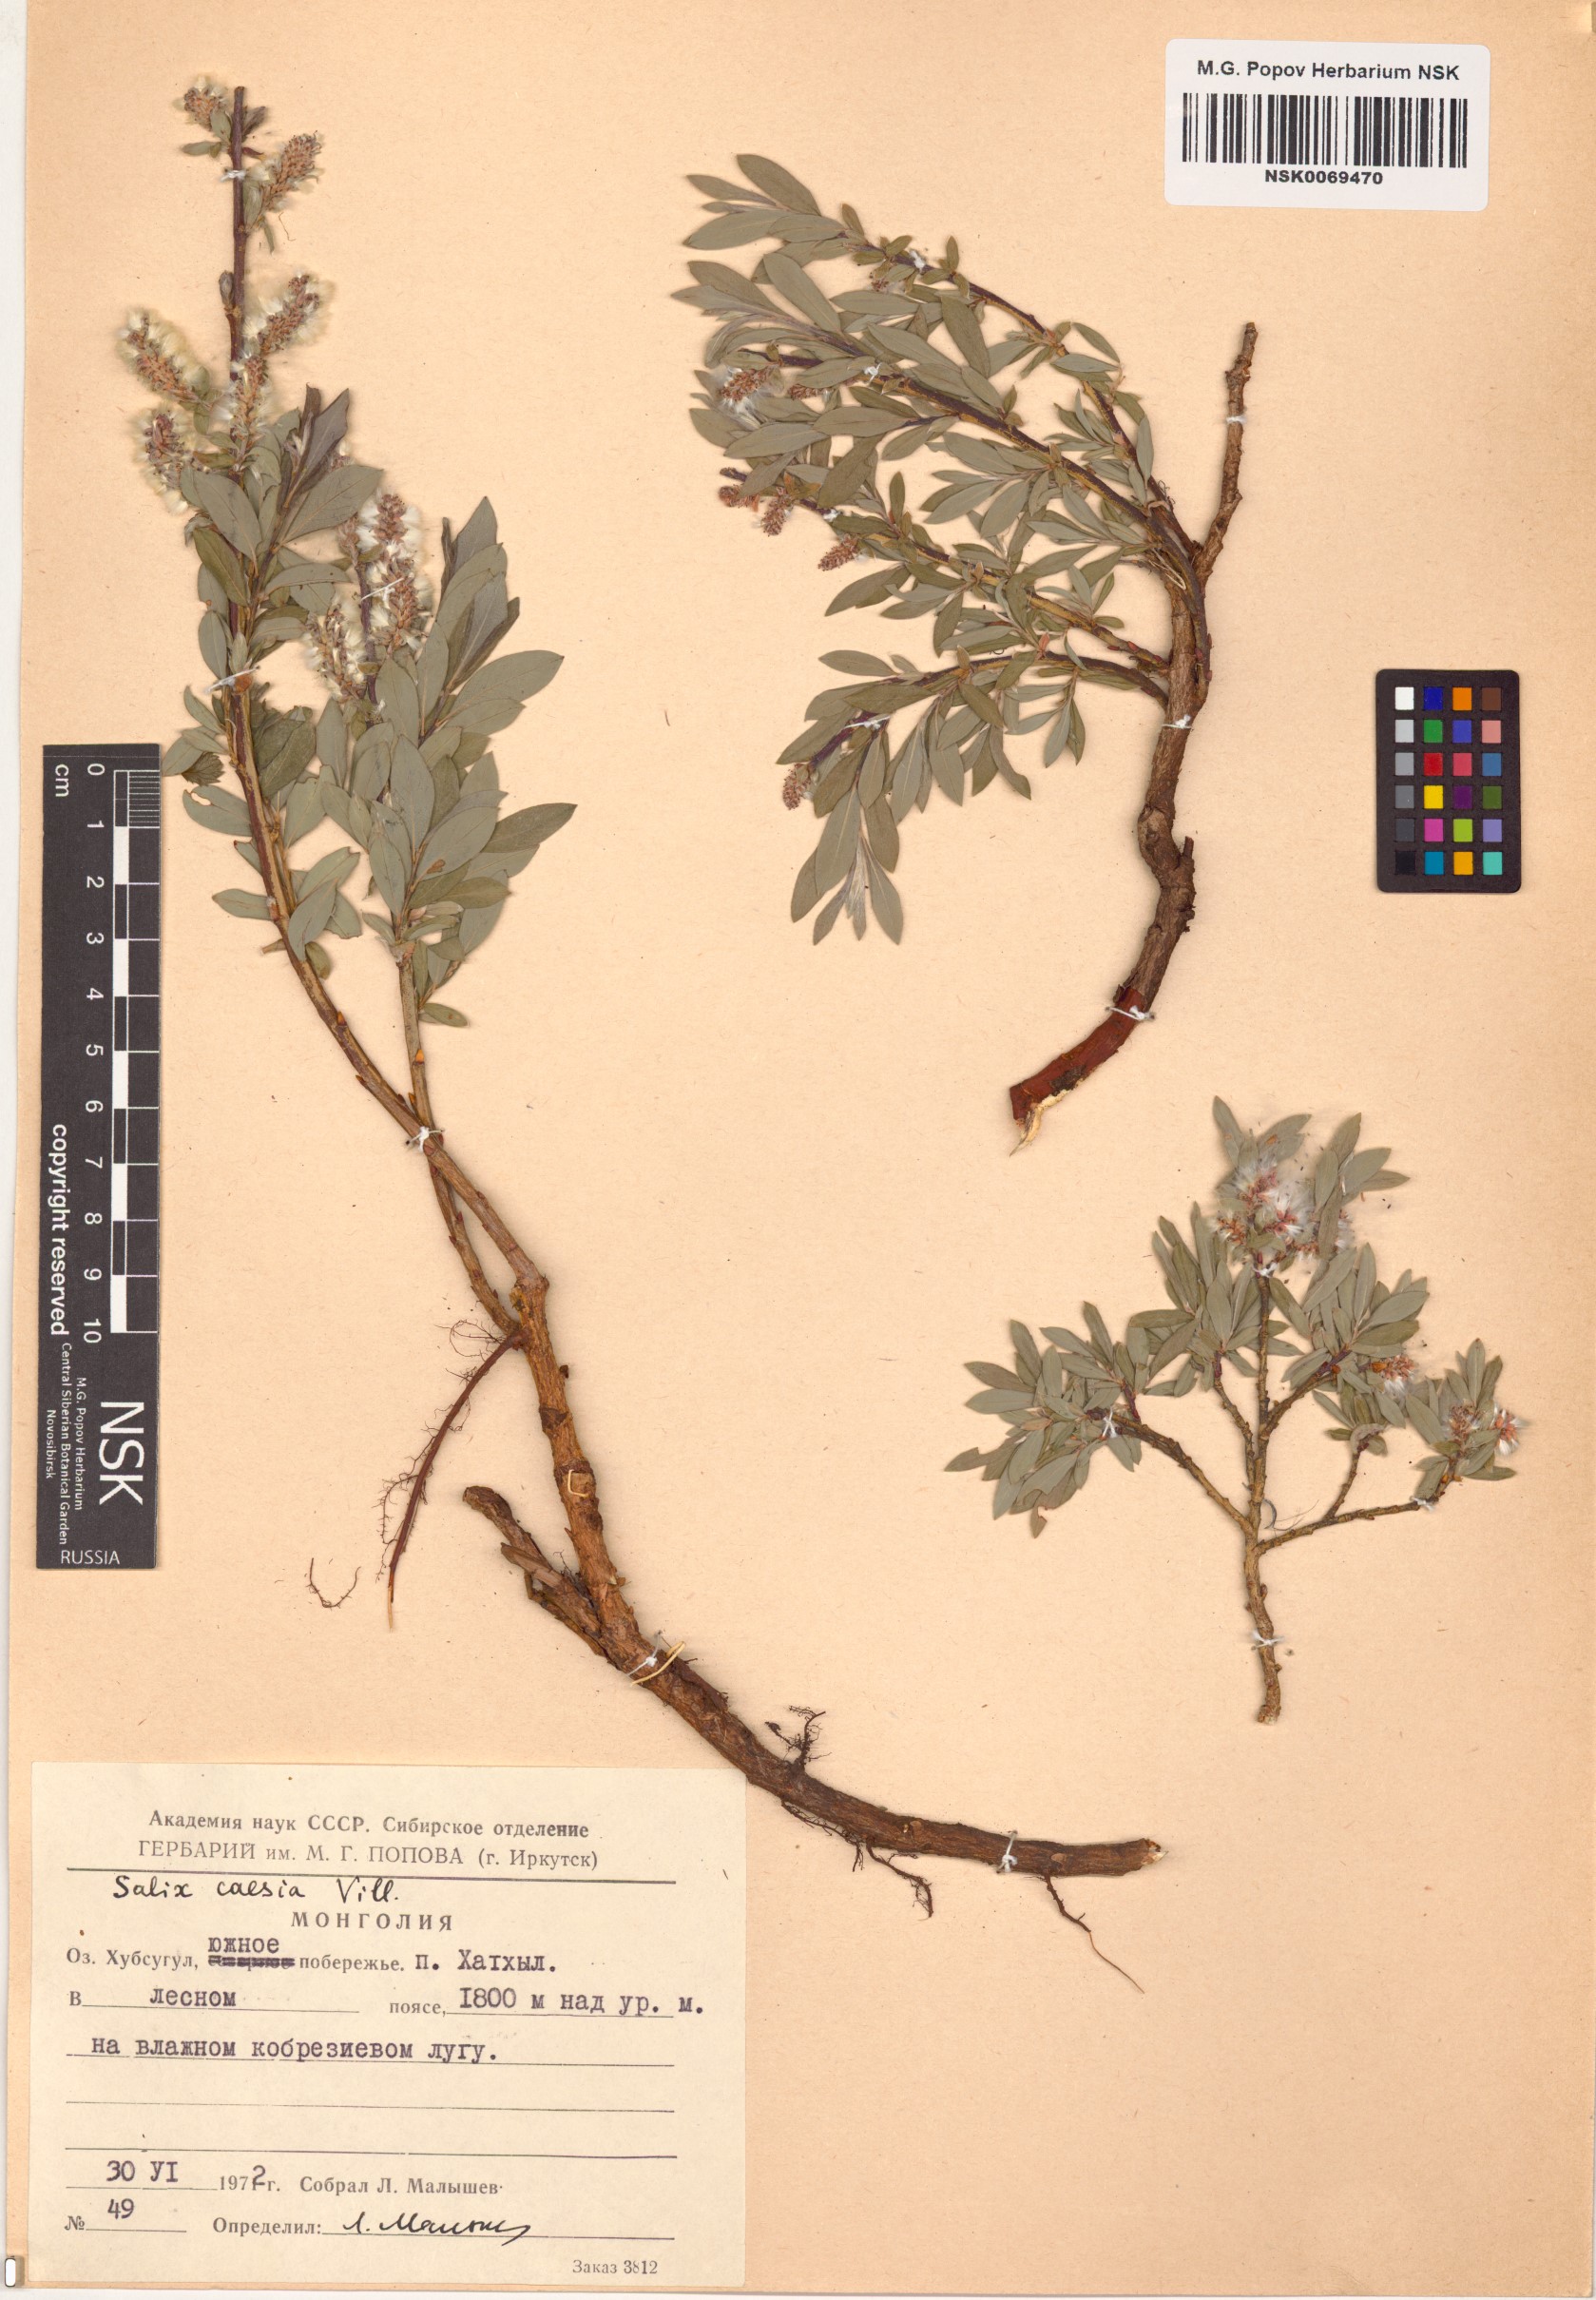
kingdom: Plantae
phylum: Tracheophyta
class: Magnoliopsida
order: Malpighiales
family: Salicaceae
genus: Salix
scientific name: Salix caesia
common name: Blue willow
